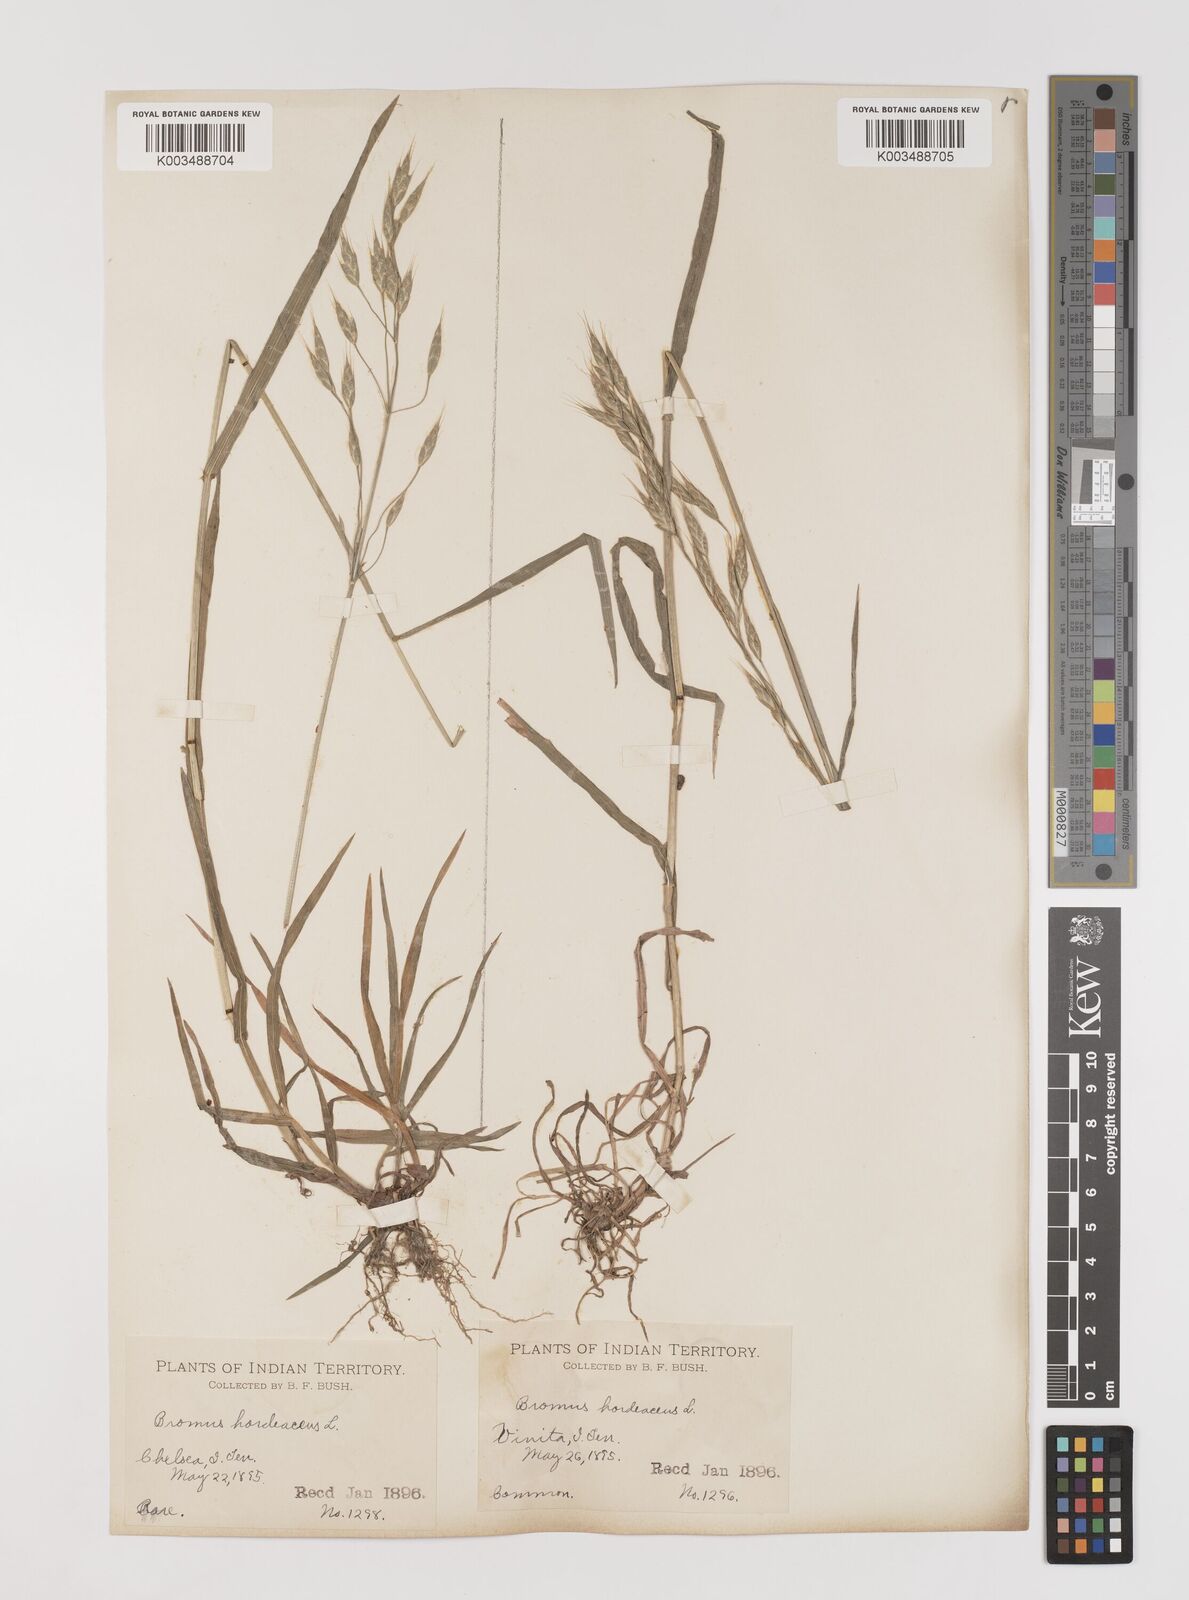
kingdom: Plantae
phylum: Tracheophyta
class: Liliopsida
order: Poales
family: Poaceae
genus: Bromus
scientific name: Bromus racemosus
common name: Bald brome
